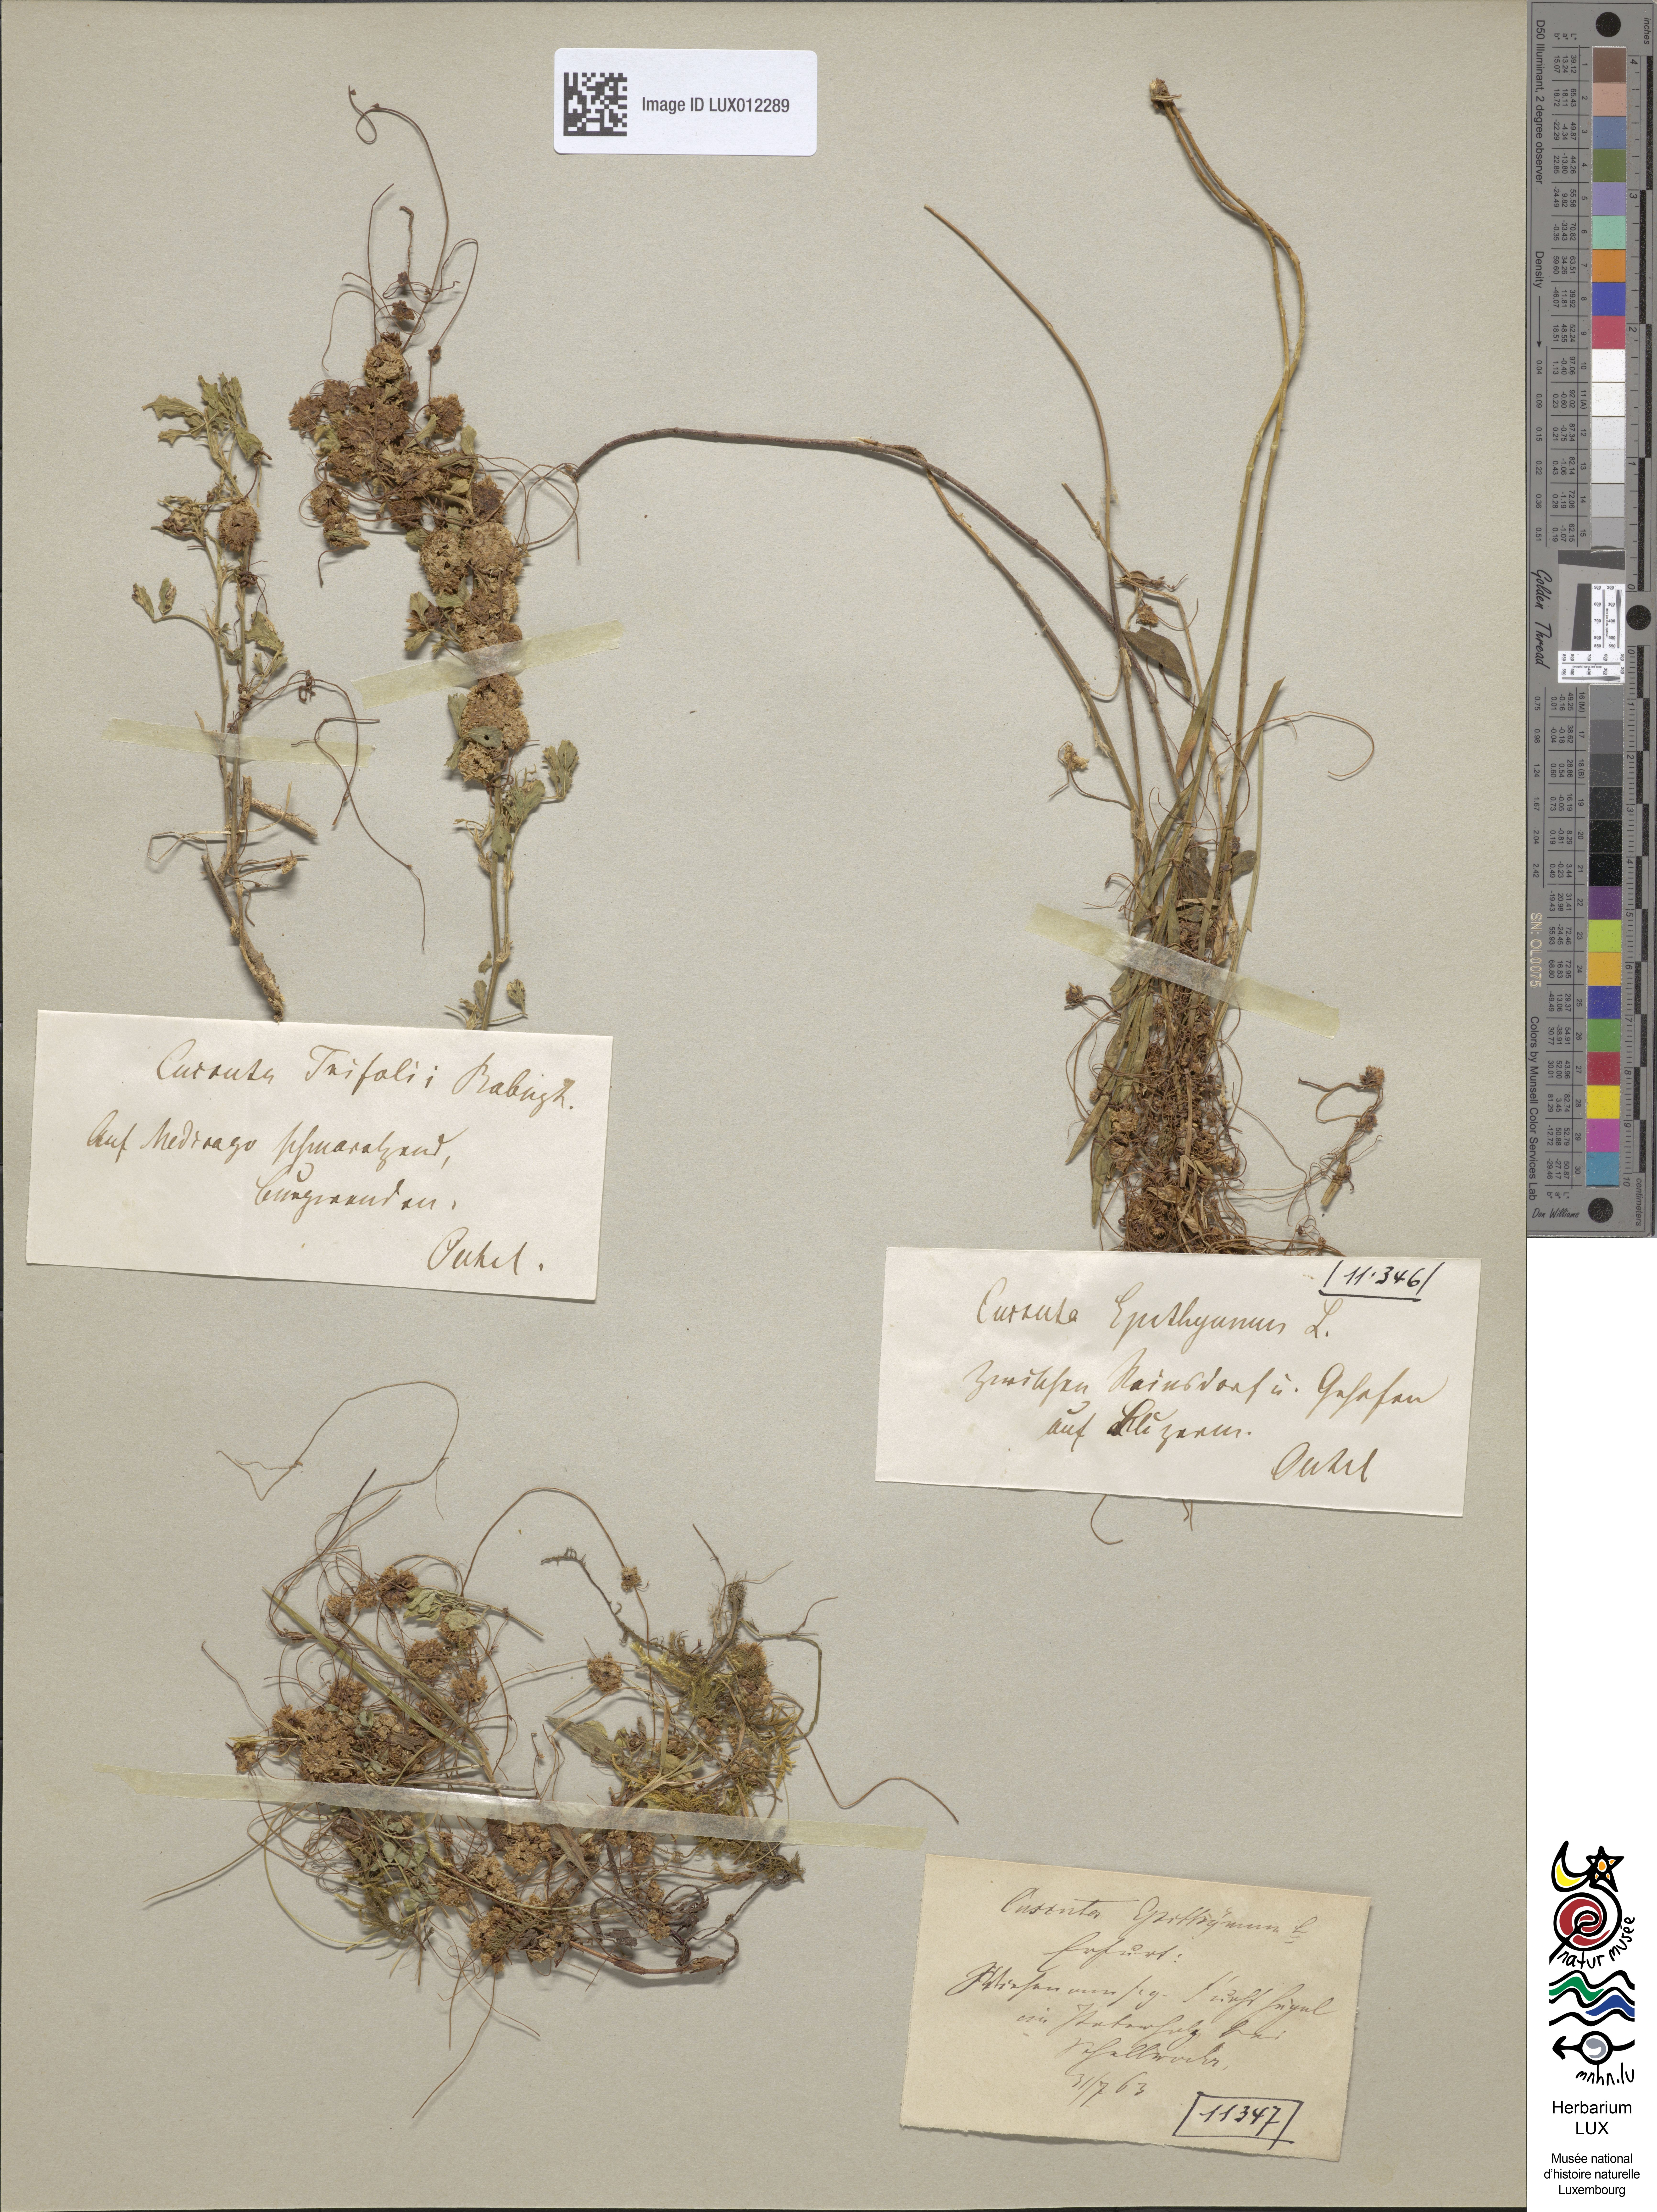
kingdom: Plantae
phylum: Tracheophyta
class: Magnoliopsida
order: Solanales
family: Convolvulaceae
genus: Cuscuta
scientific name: Cuscuta epithymum
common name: Clover dodder
